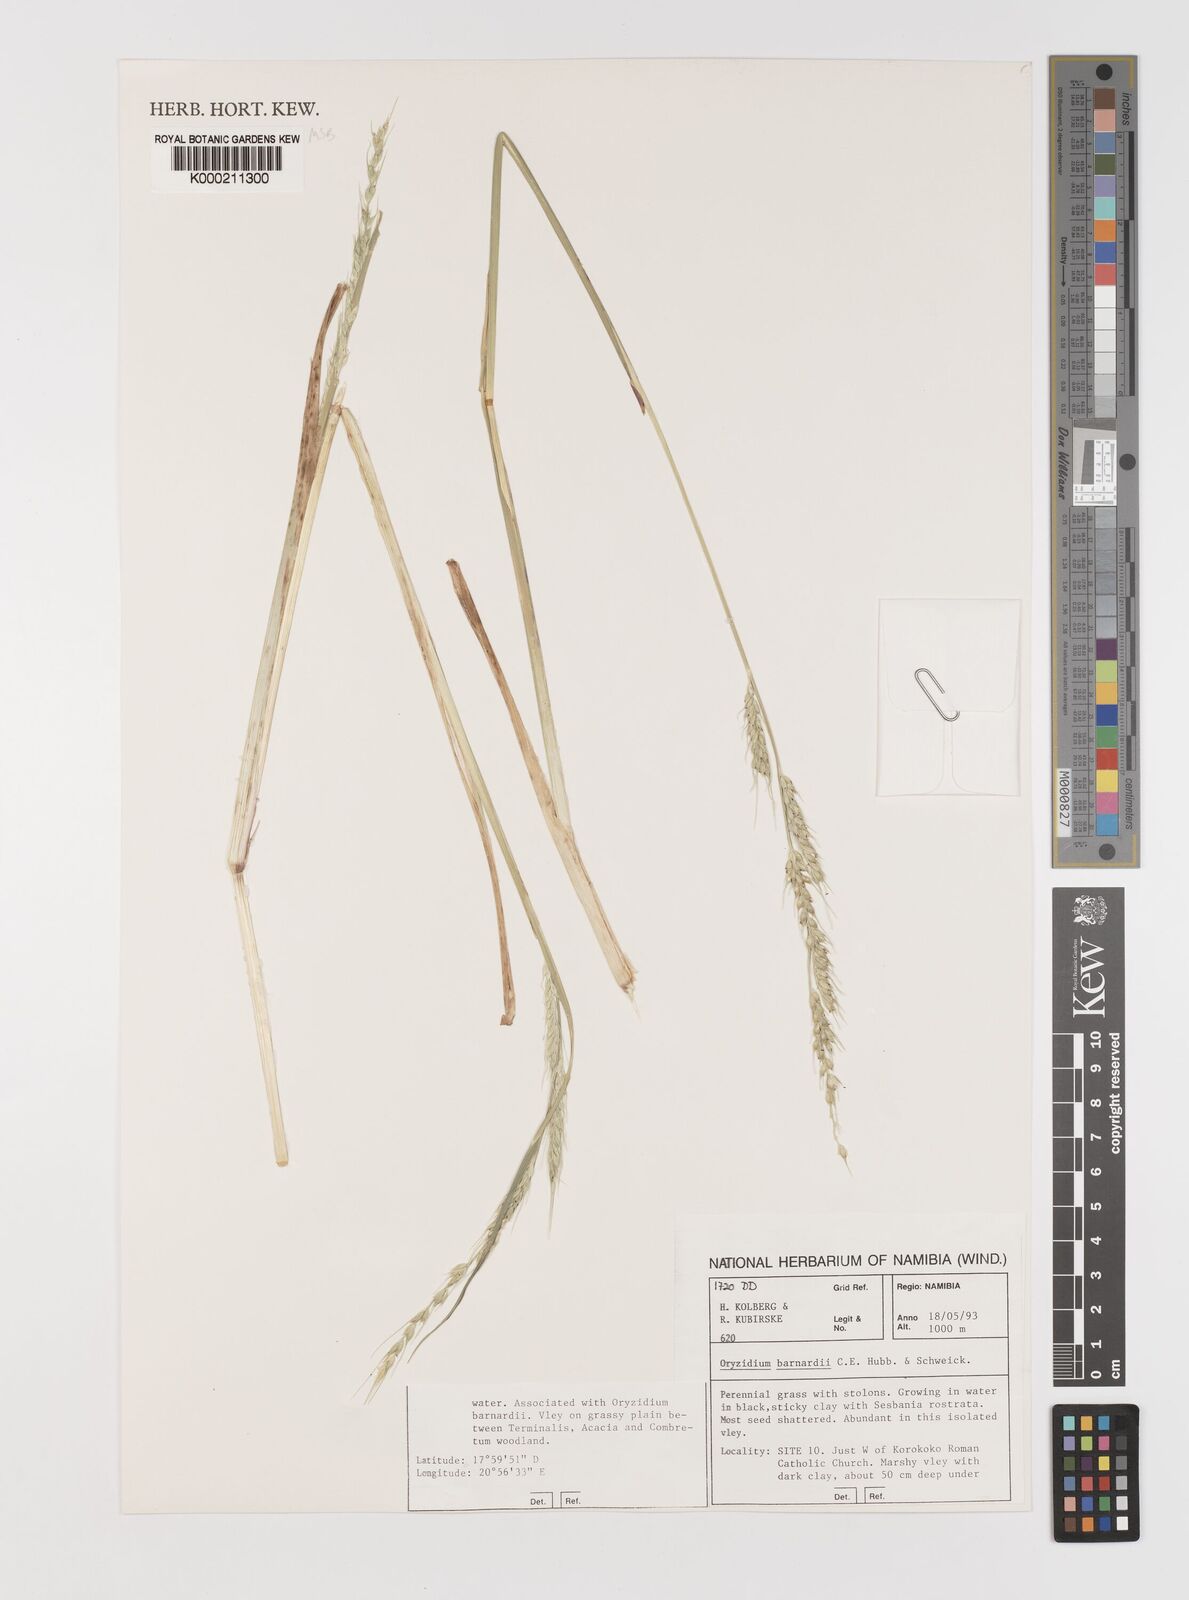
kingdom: Plantae
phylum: Tracheophyta
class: Liliopsida
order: Poales
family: Poaceae
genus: Oryzidium
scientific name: Oryzidium barnardii
